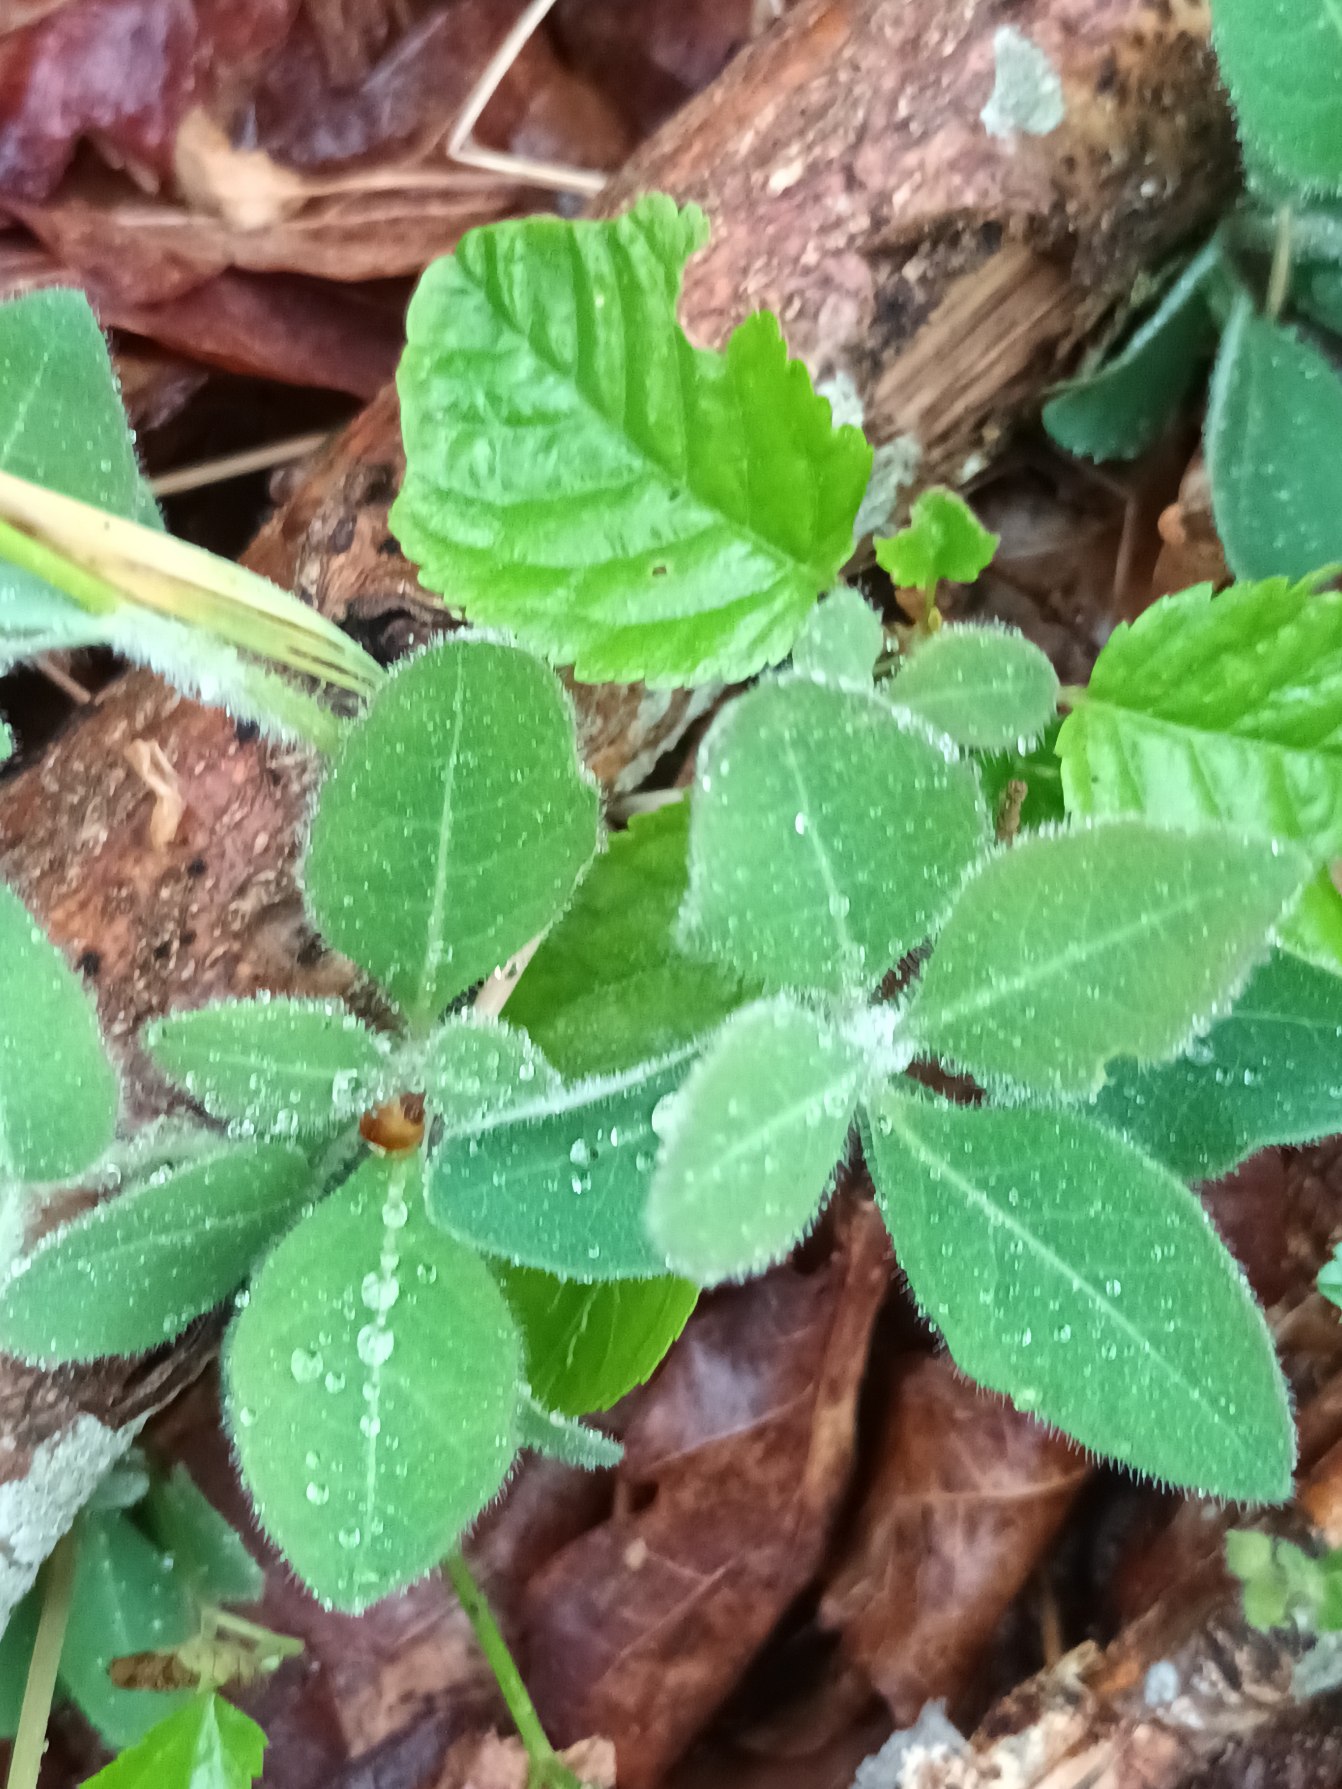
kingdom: Plantae
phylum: Tracheophyta
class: Magnoliopsida
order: Dipsacales
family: Caprifoliaceae
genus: Lonicera
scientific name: Lonicera periclymenum
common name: Almindelig gedeblad
